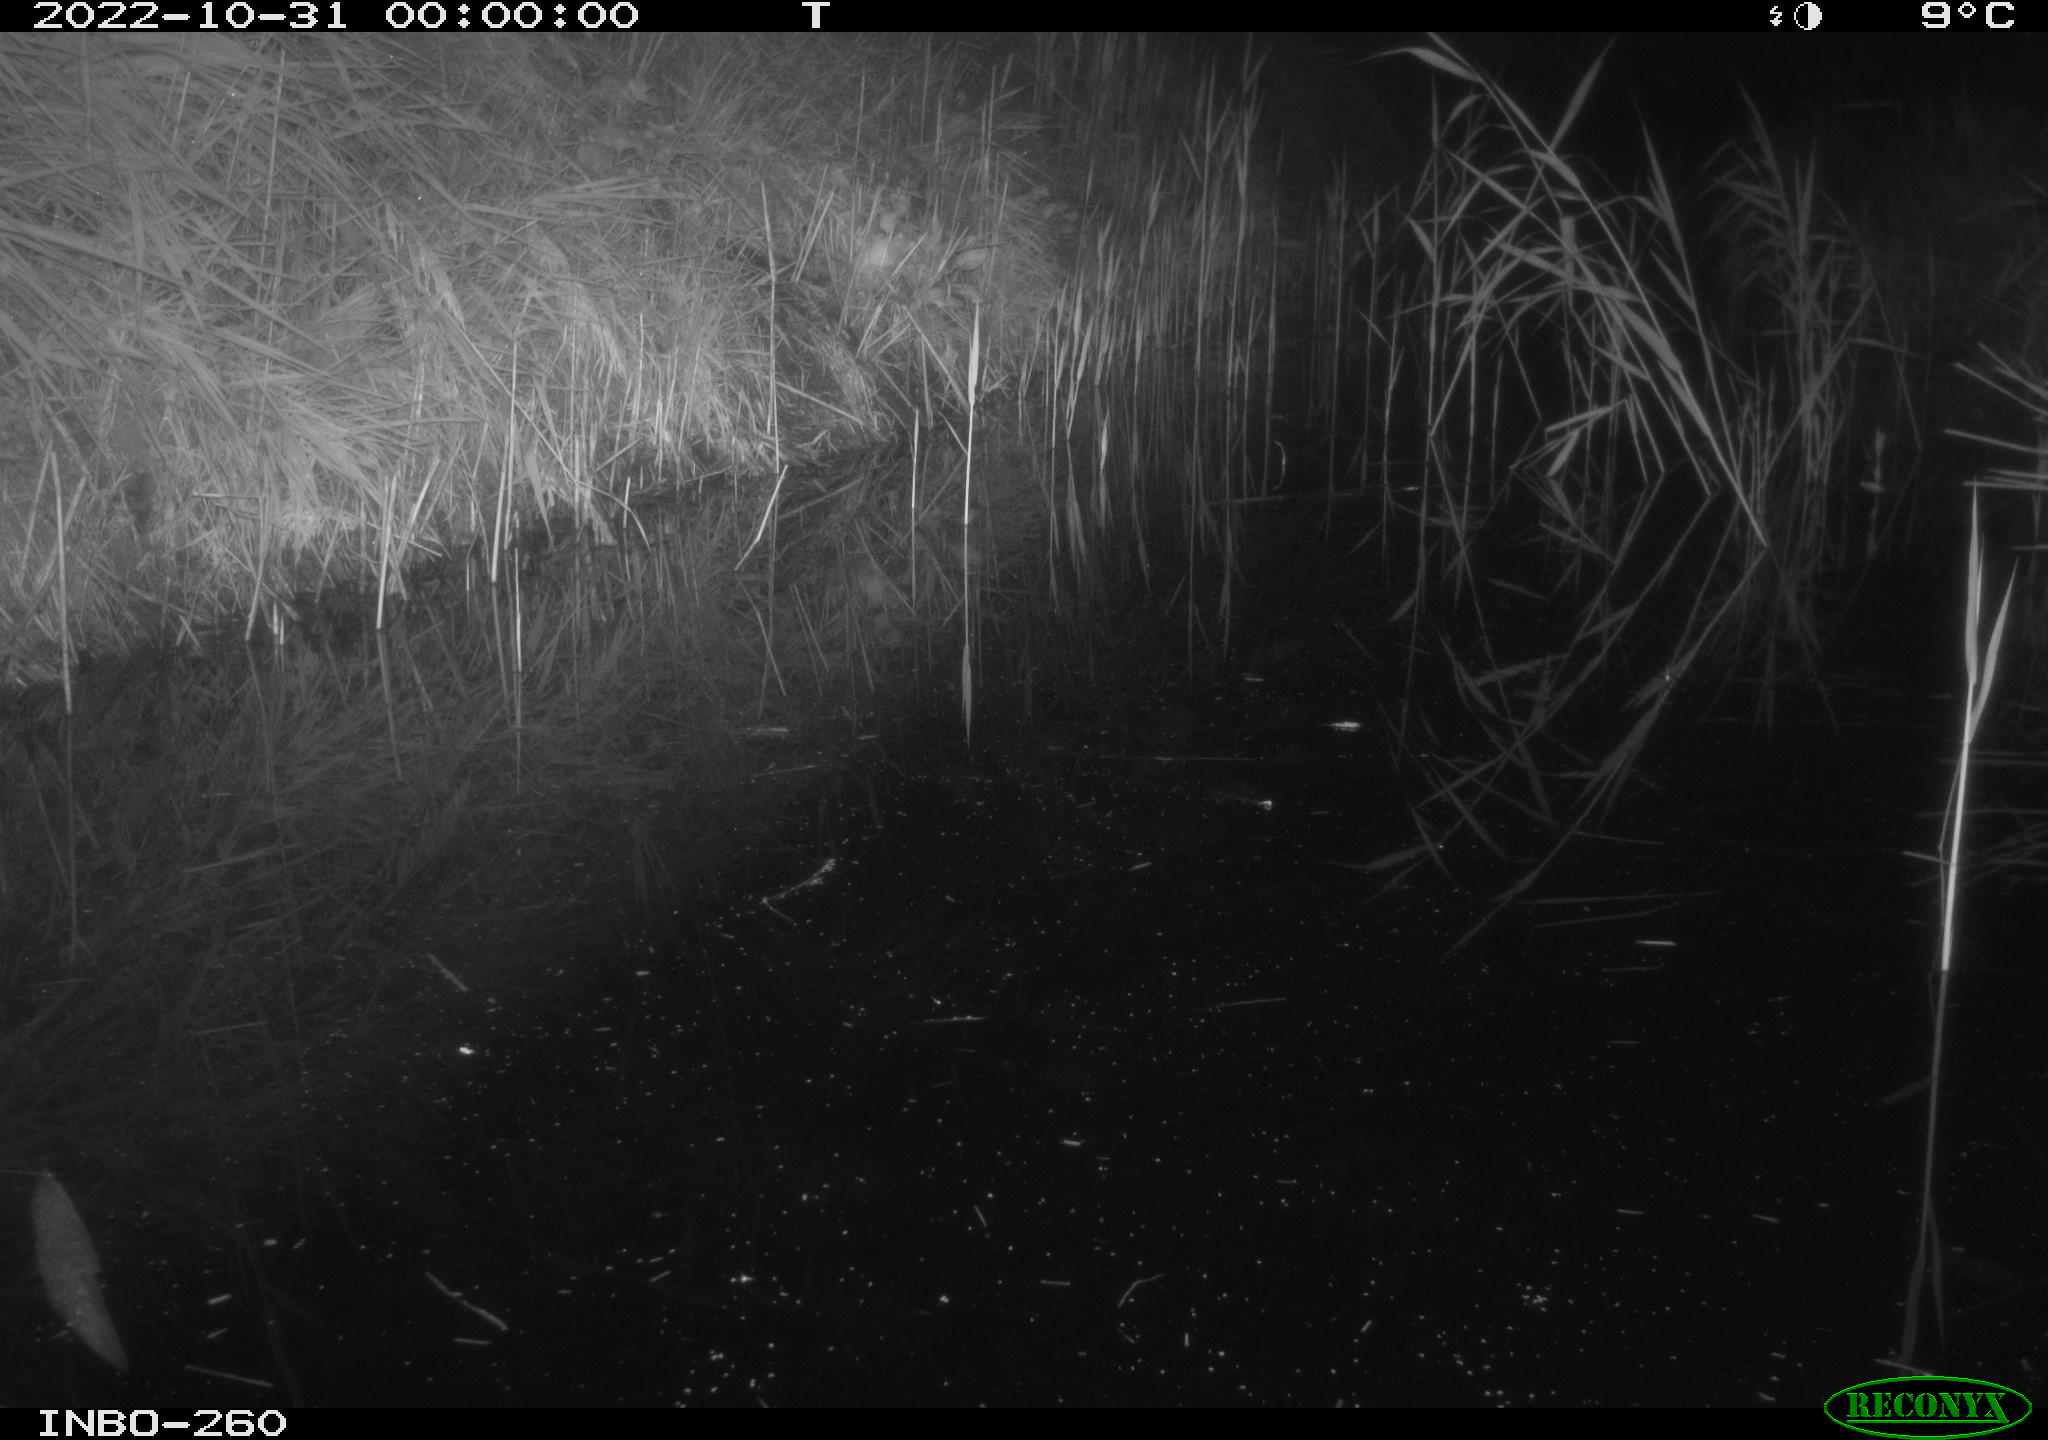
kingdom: Animalia
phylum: Chordata
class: Mammalia
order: Rodentia
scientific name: Rodentia
